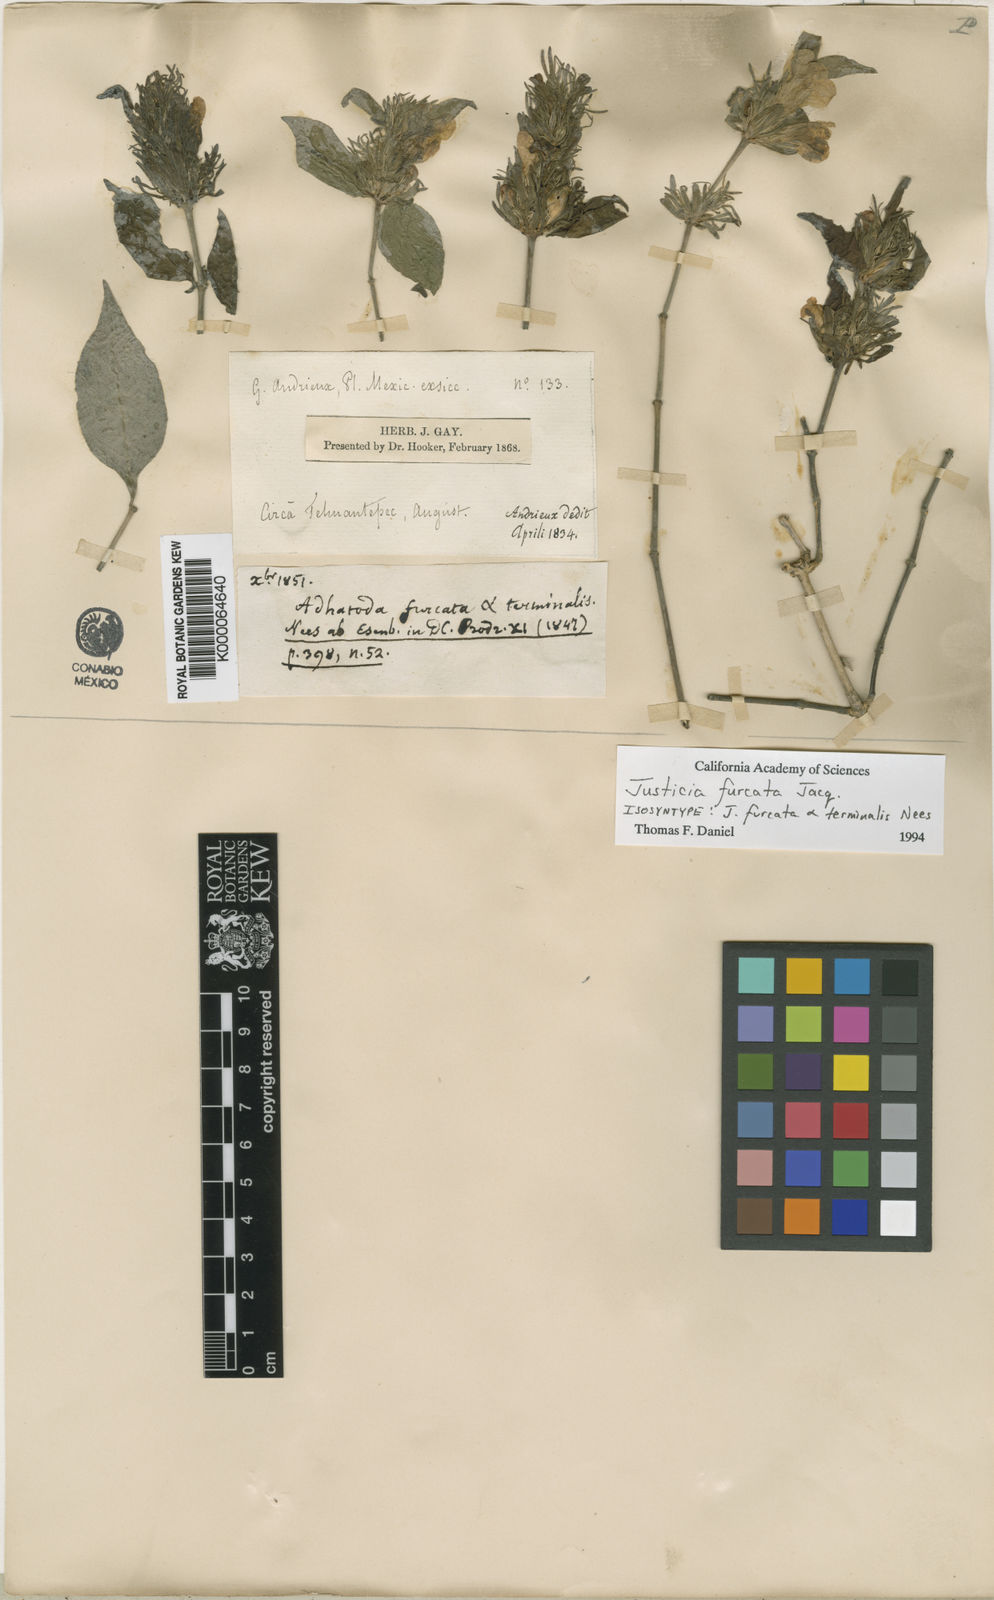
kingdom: Plantae
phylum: Tracheophyta
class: Magnoliopsida
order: Lamiales
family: Acanthaceae
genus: Justicia
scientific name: Justicia furcata
